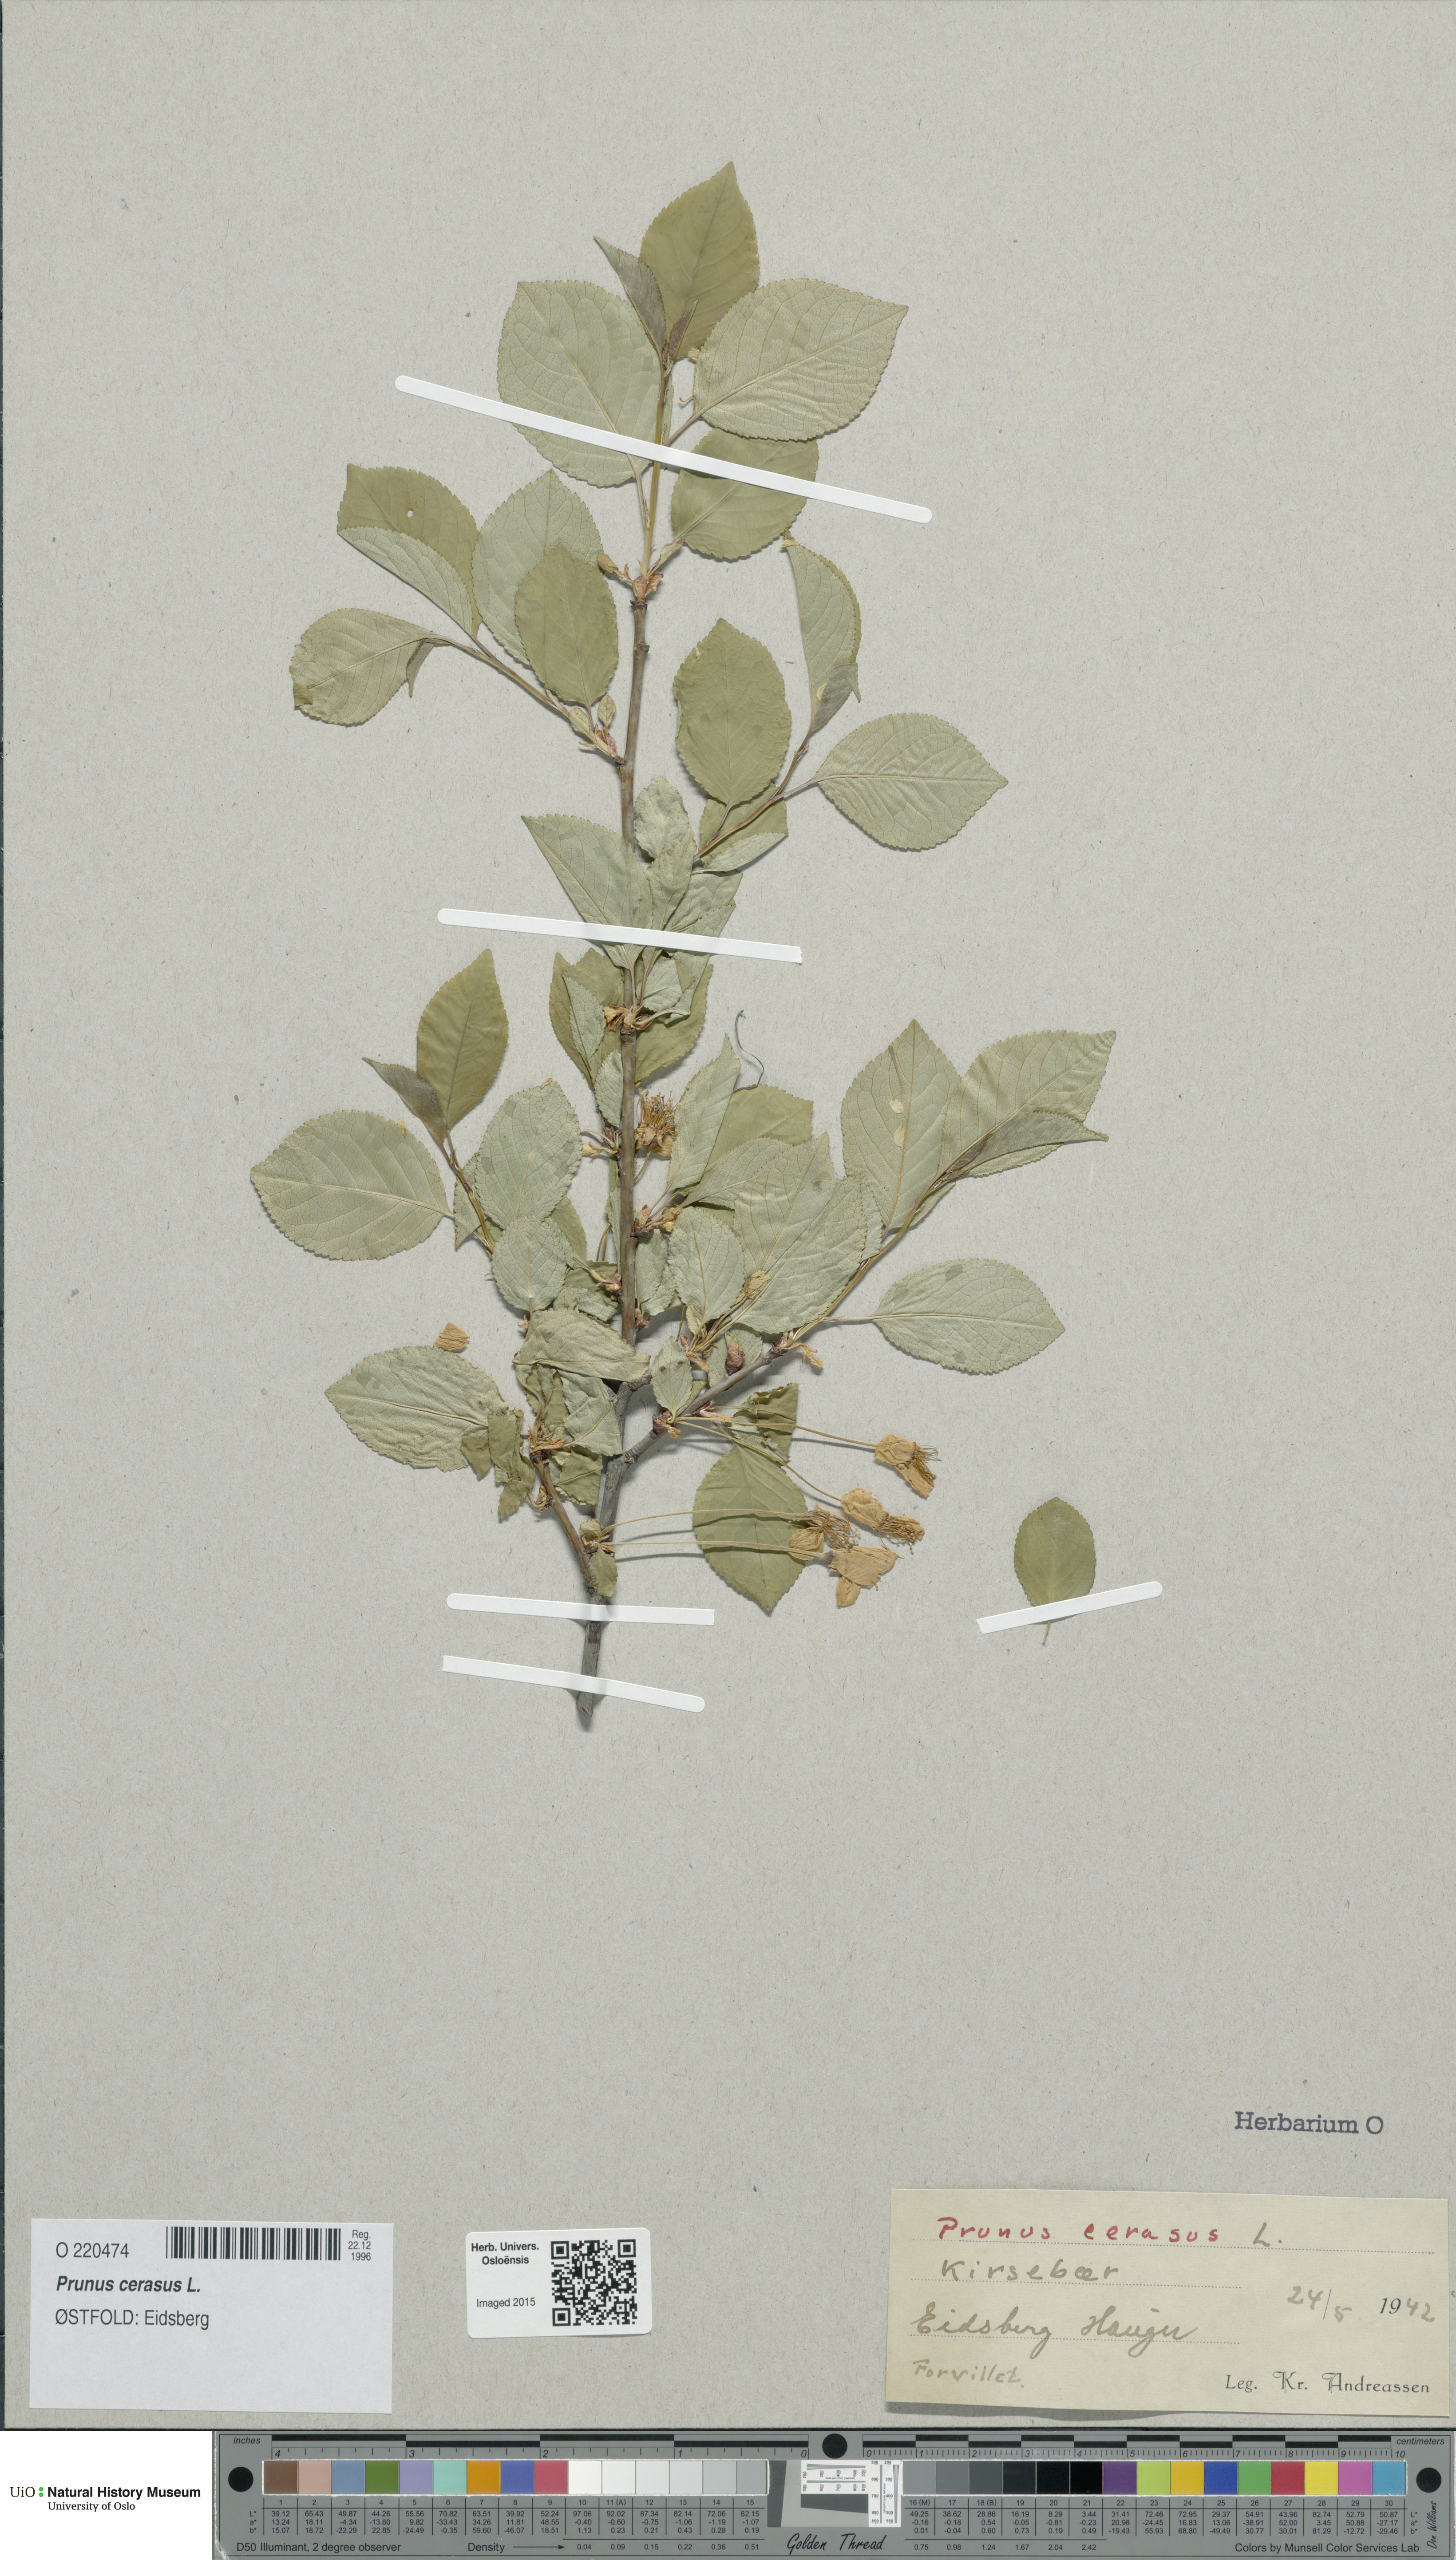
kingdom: Plantae
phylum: Tracheophyta
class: Magnoliopsida
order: Rosales
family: Rosaceae
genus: Prunus
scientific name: Prunus cerasus
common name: Morello cherry
